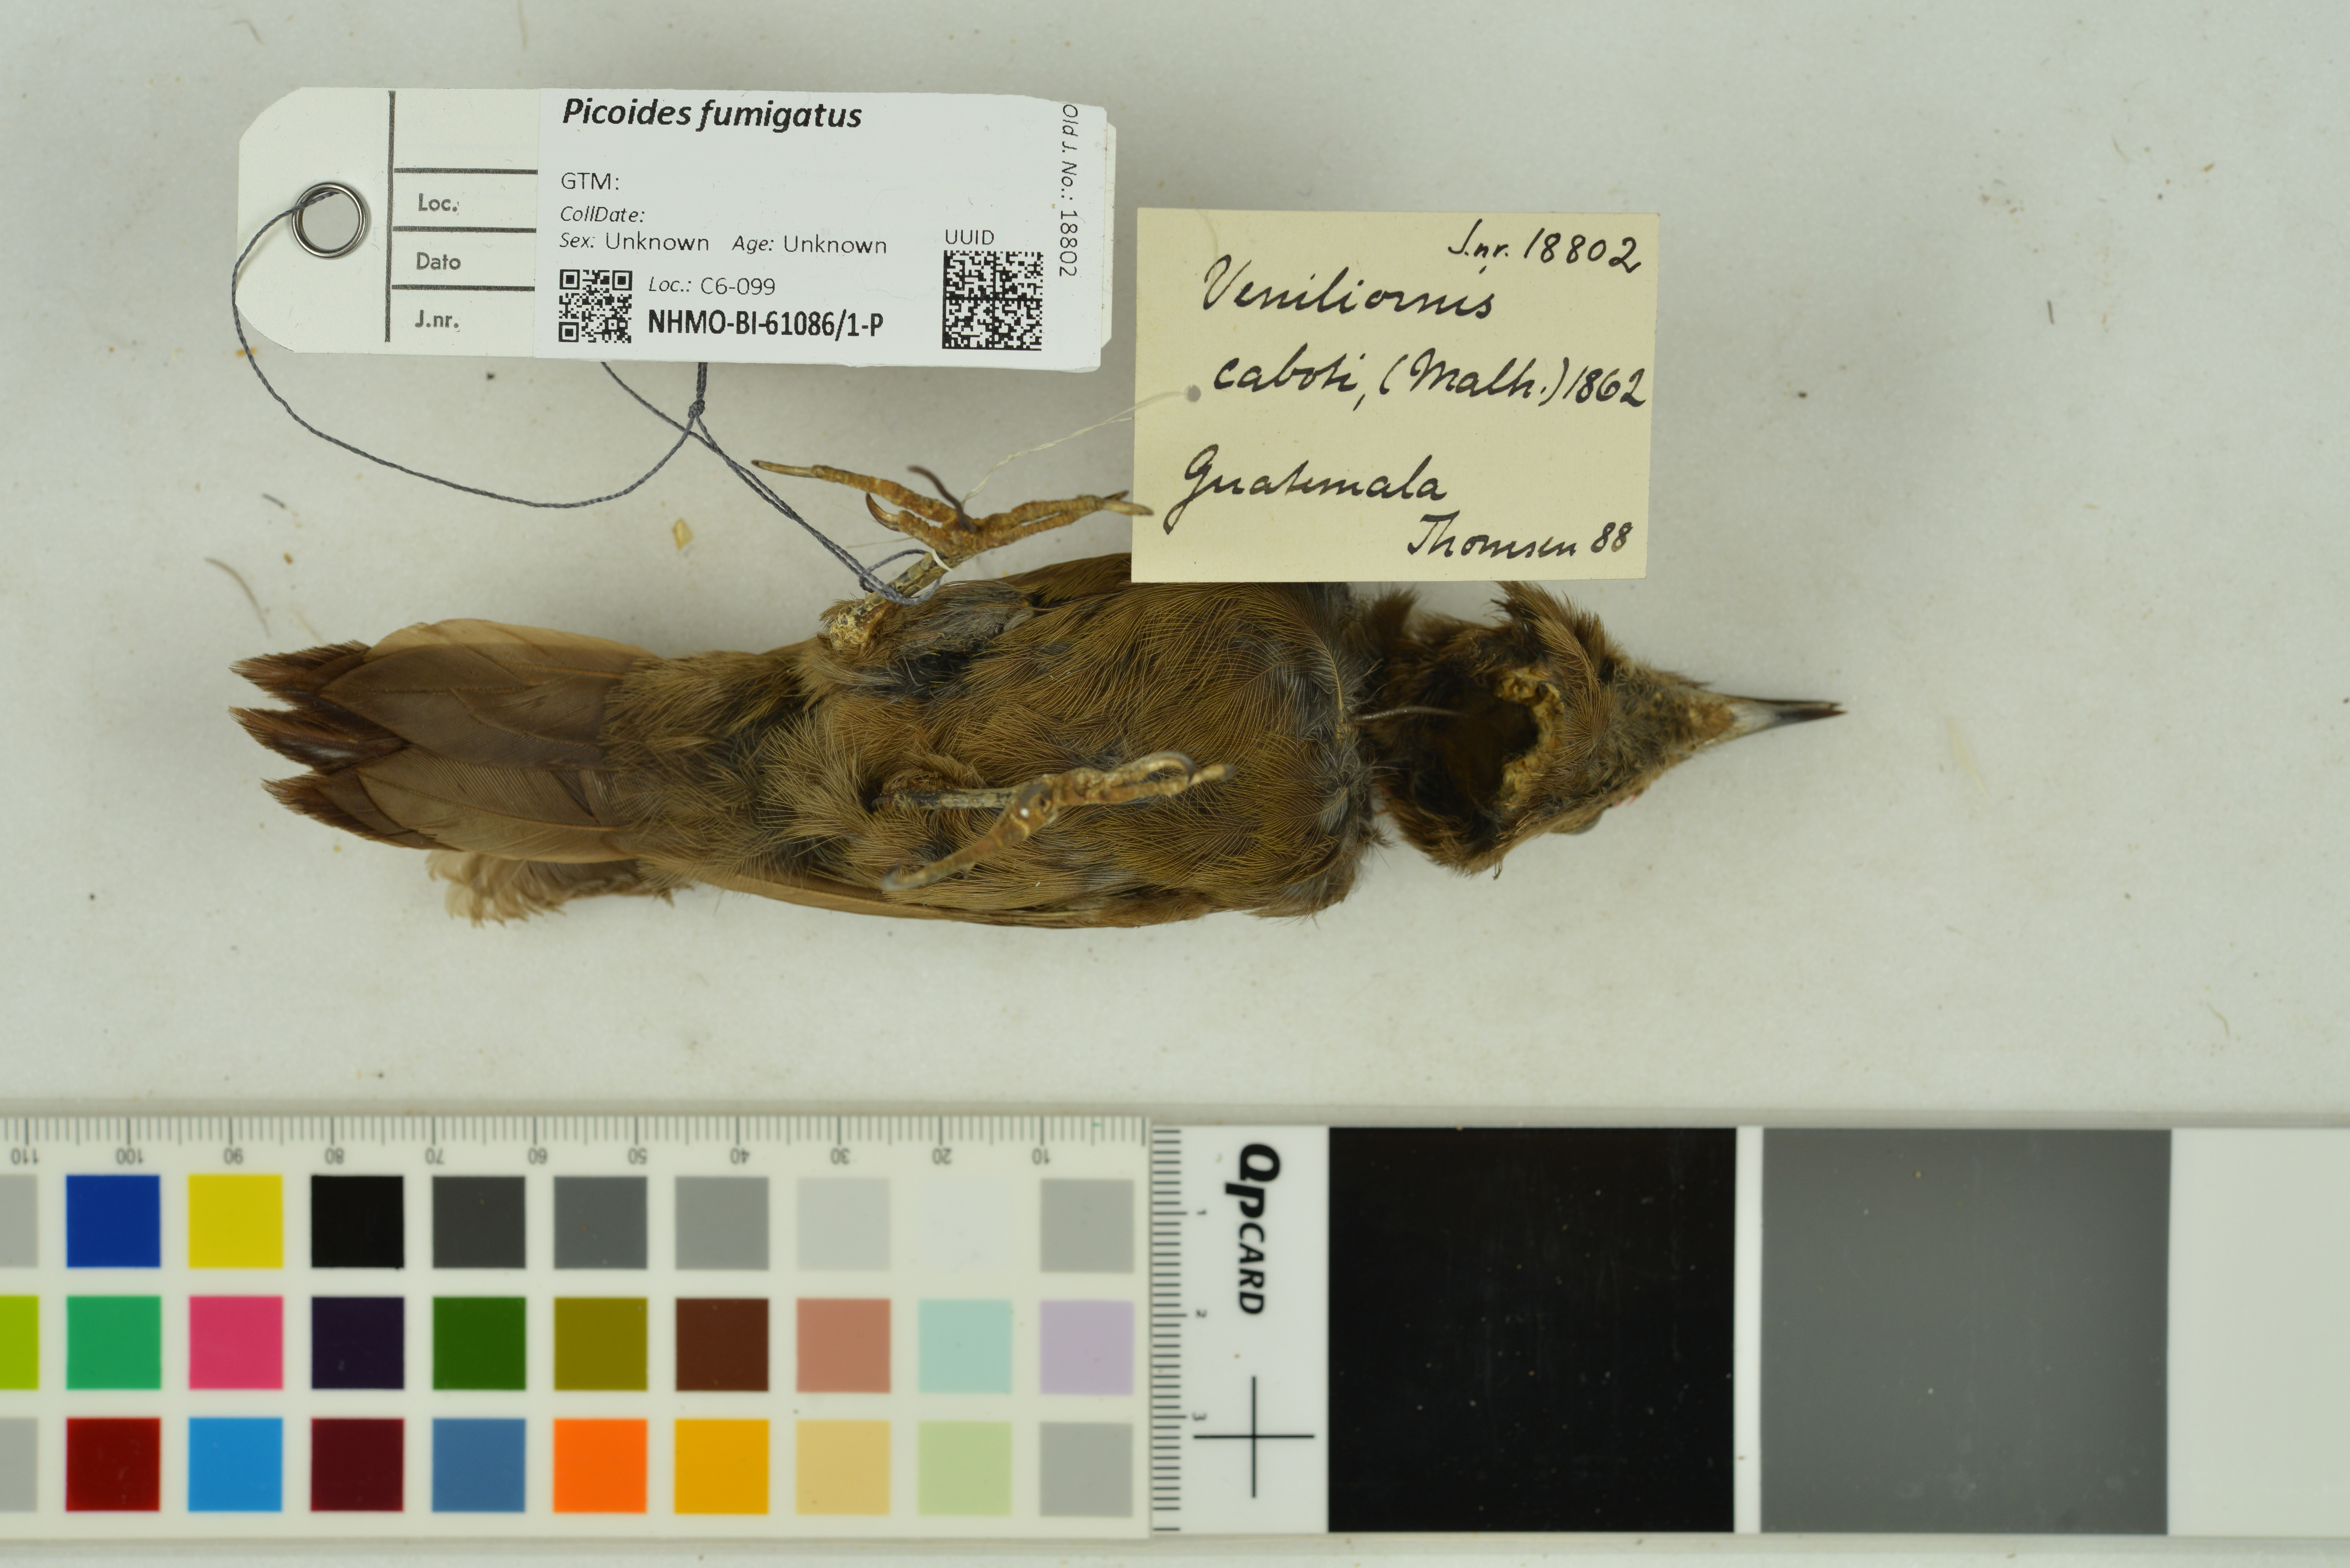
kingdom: Animalia
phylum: Chordata
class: Aves
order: Piciformes
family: Picidae
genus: Leuconotopicus
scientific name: Leuconotopicus fumigatus
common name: Smoky-brown woodpecker
